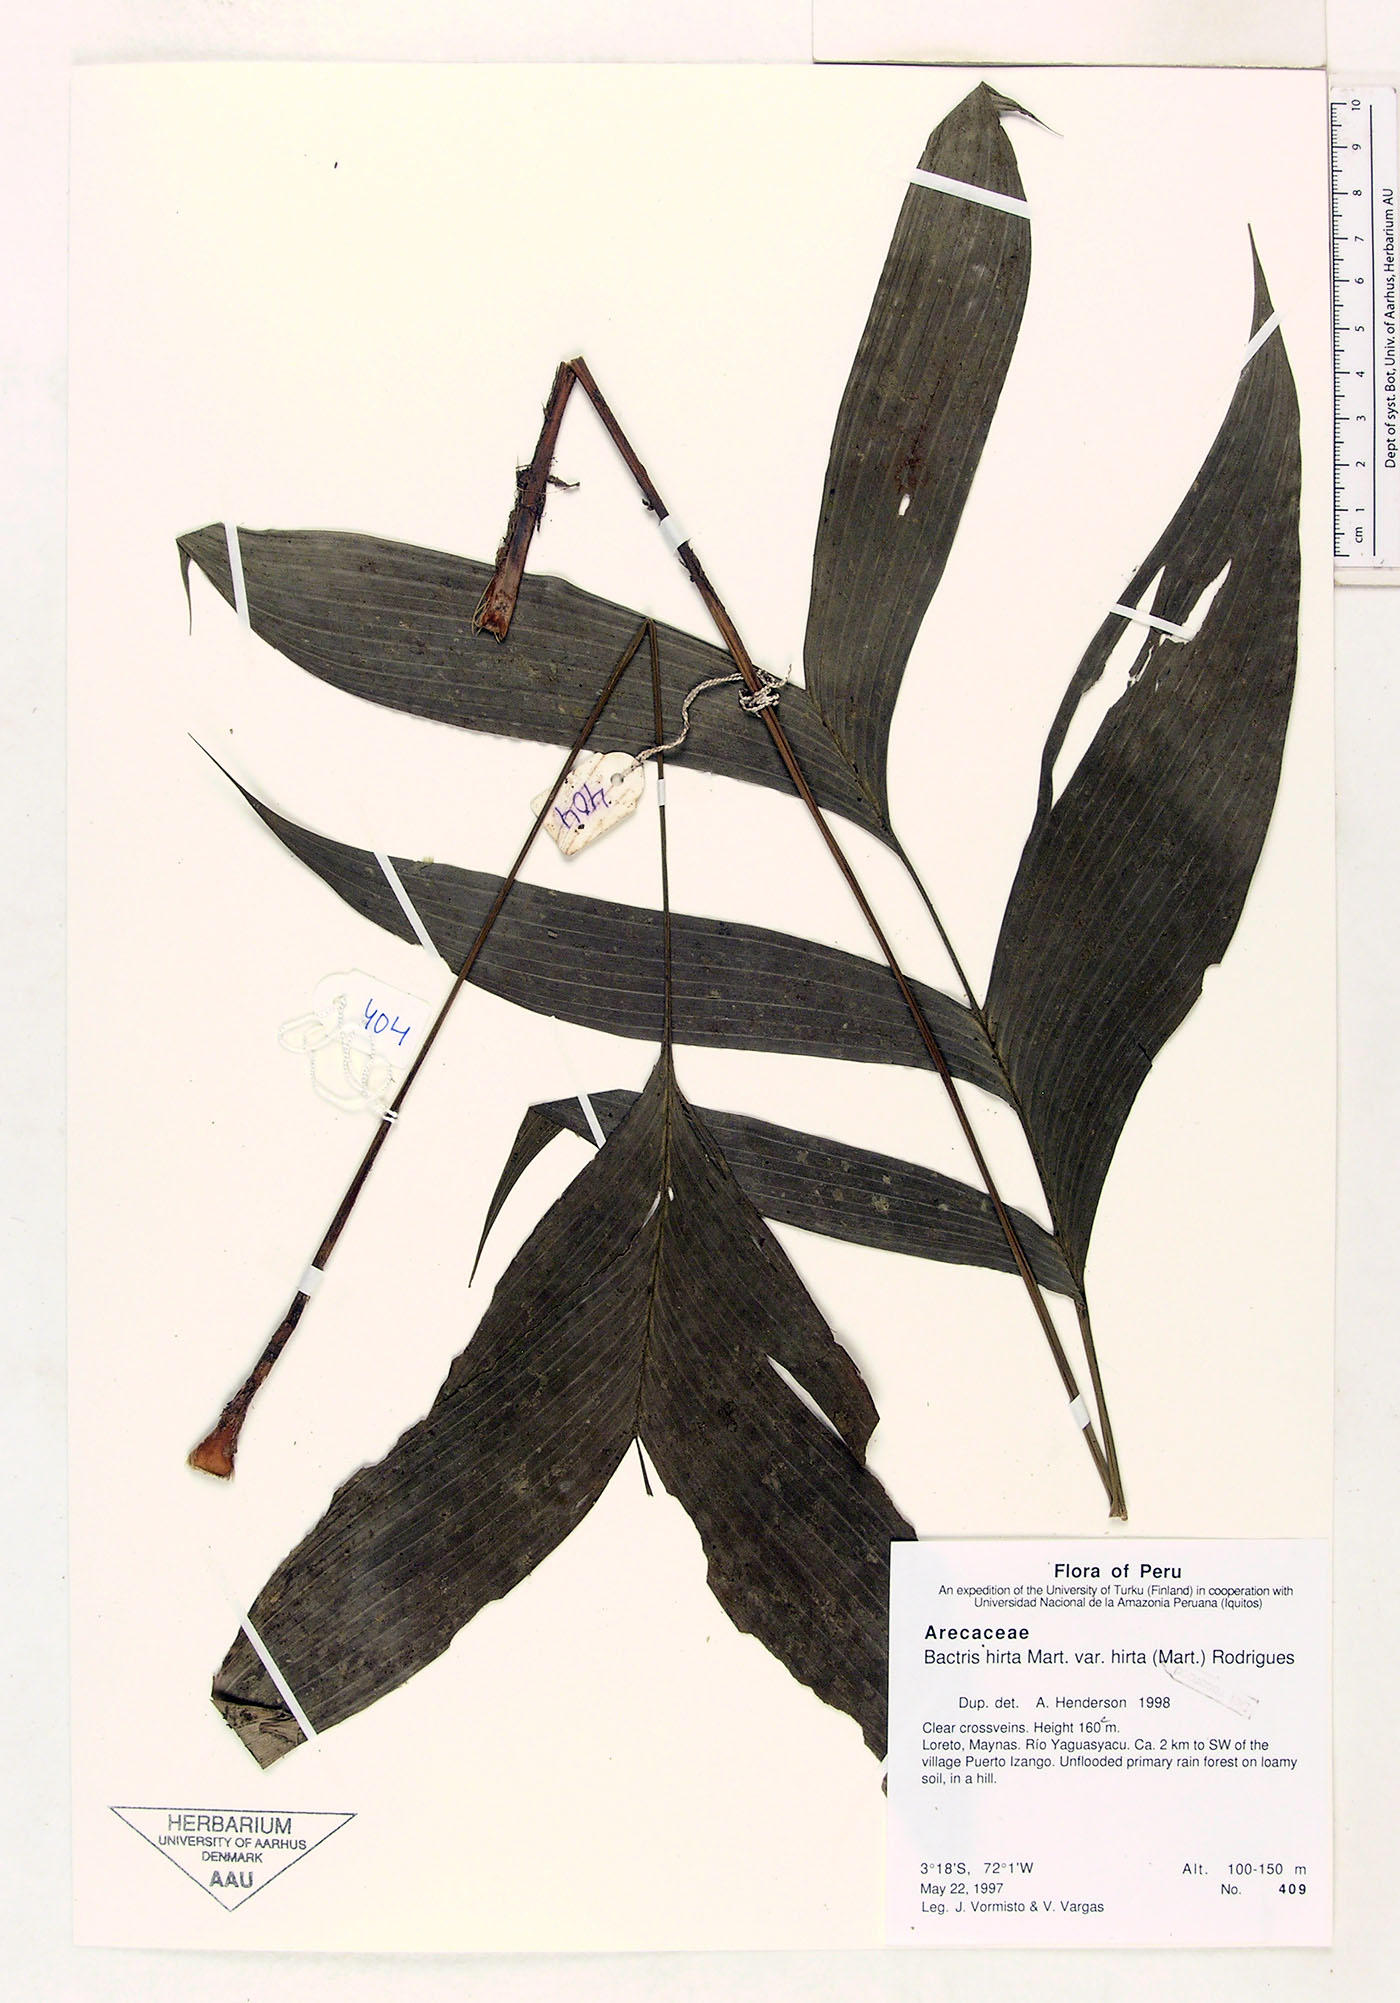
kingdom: Plantae
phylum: Tracheophyta
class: Liliopsida
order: Arecales
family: Arecaceae
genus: Bactris
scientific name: Bactris hirta
